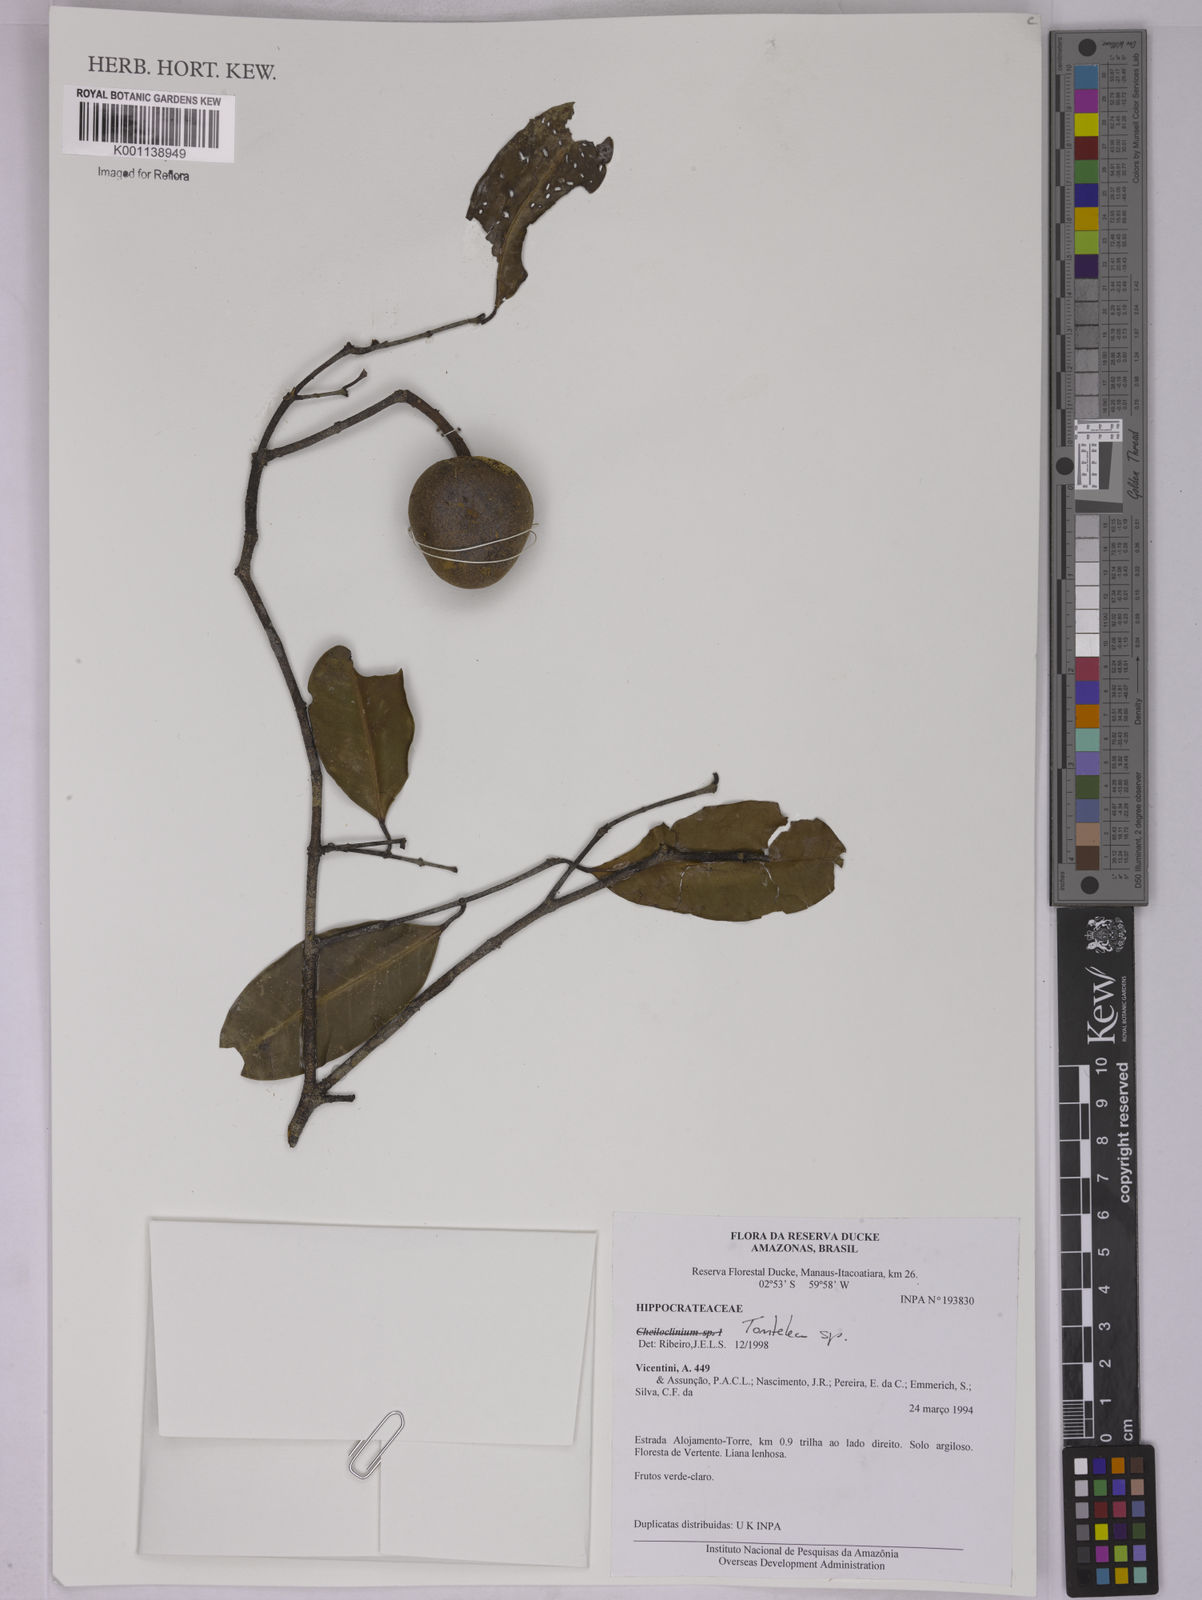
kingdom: Plantae
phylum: Tracheophyta
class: Magnoliopsida
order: Celastrales
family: Celastraceae
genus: Tontelea
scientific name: Tontelea
